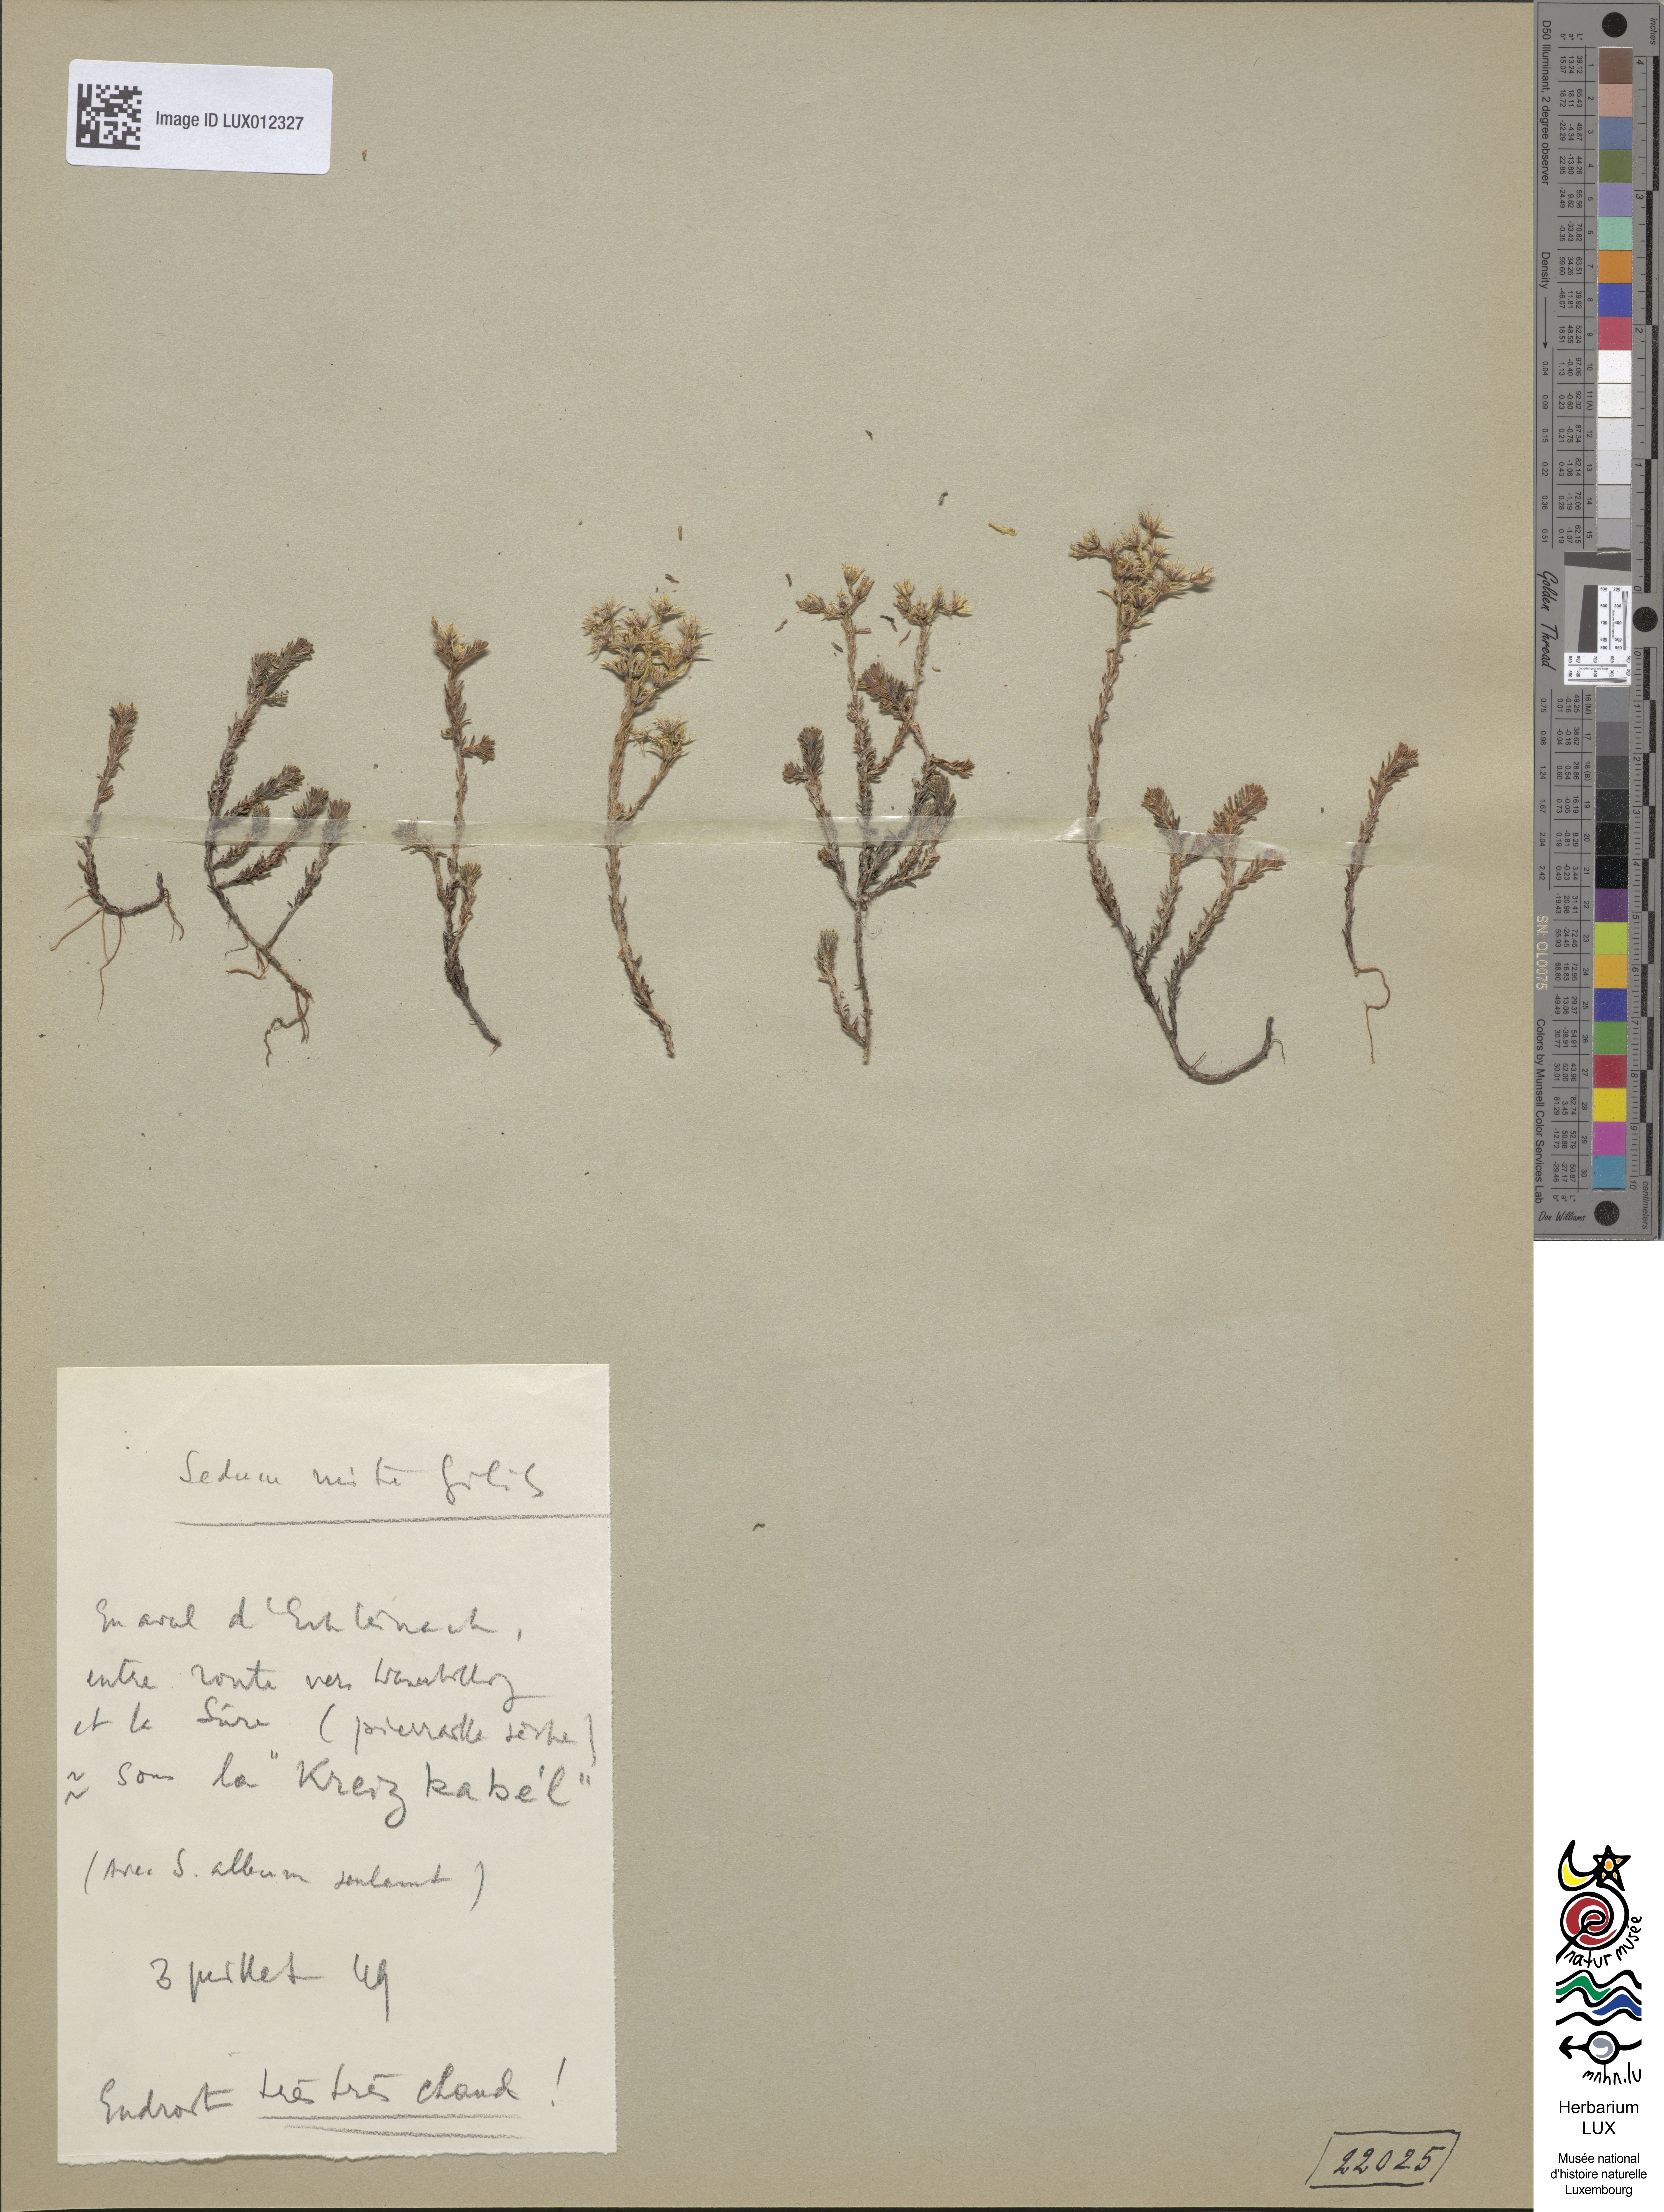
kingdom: Plantae
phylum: Tracheophyta
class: Magnoliopsida
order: Saxifragales
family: Crassulaceae
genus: Sedum
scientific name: Sedum sexangulare
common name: Tasteless stonecrop
